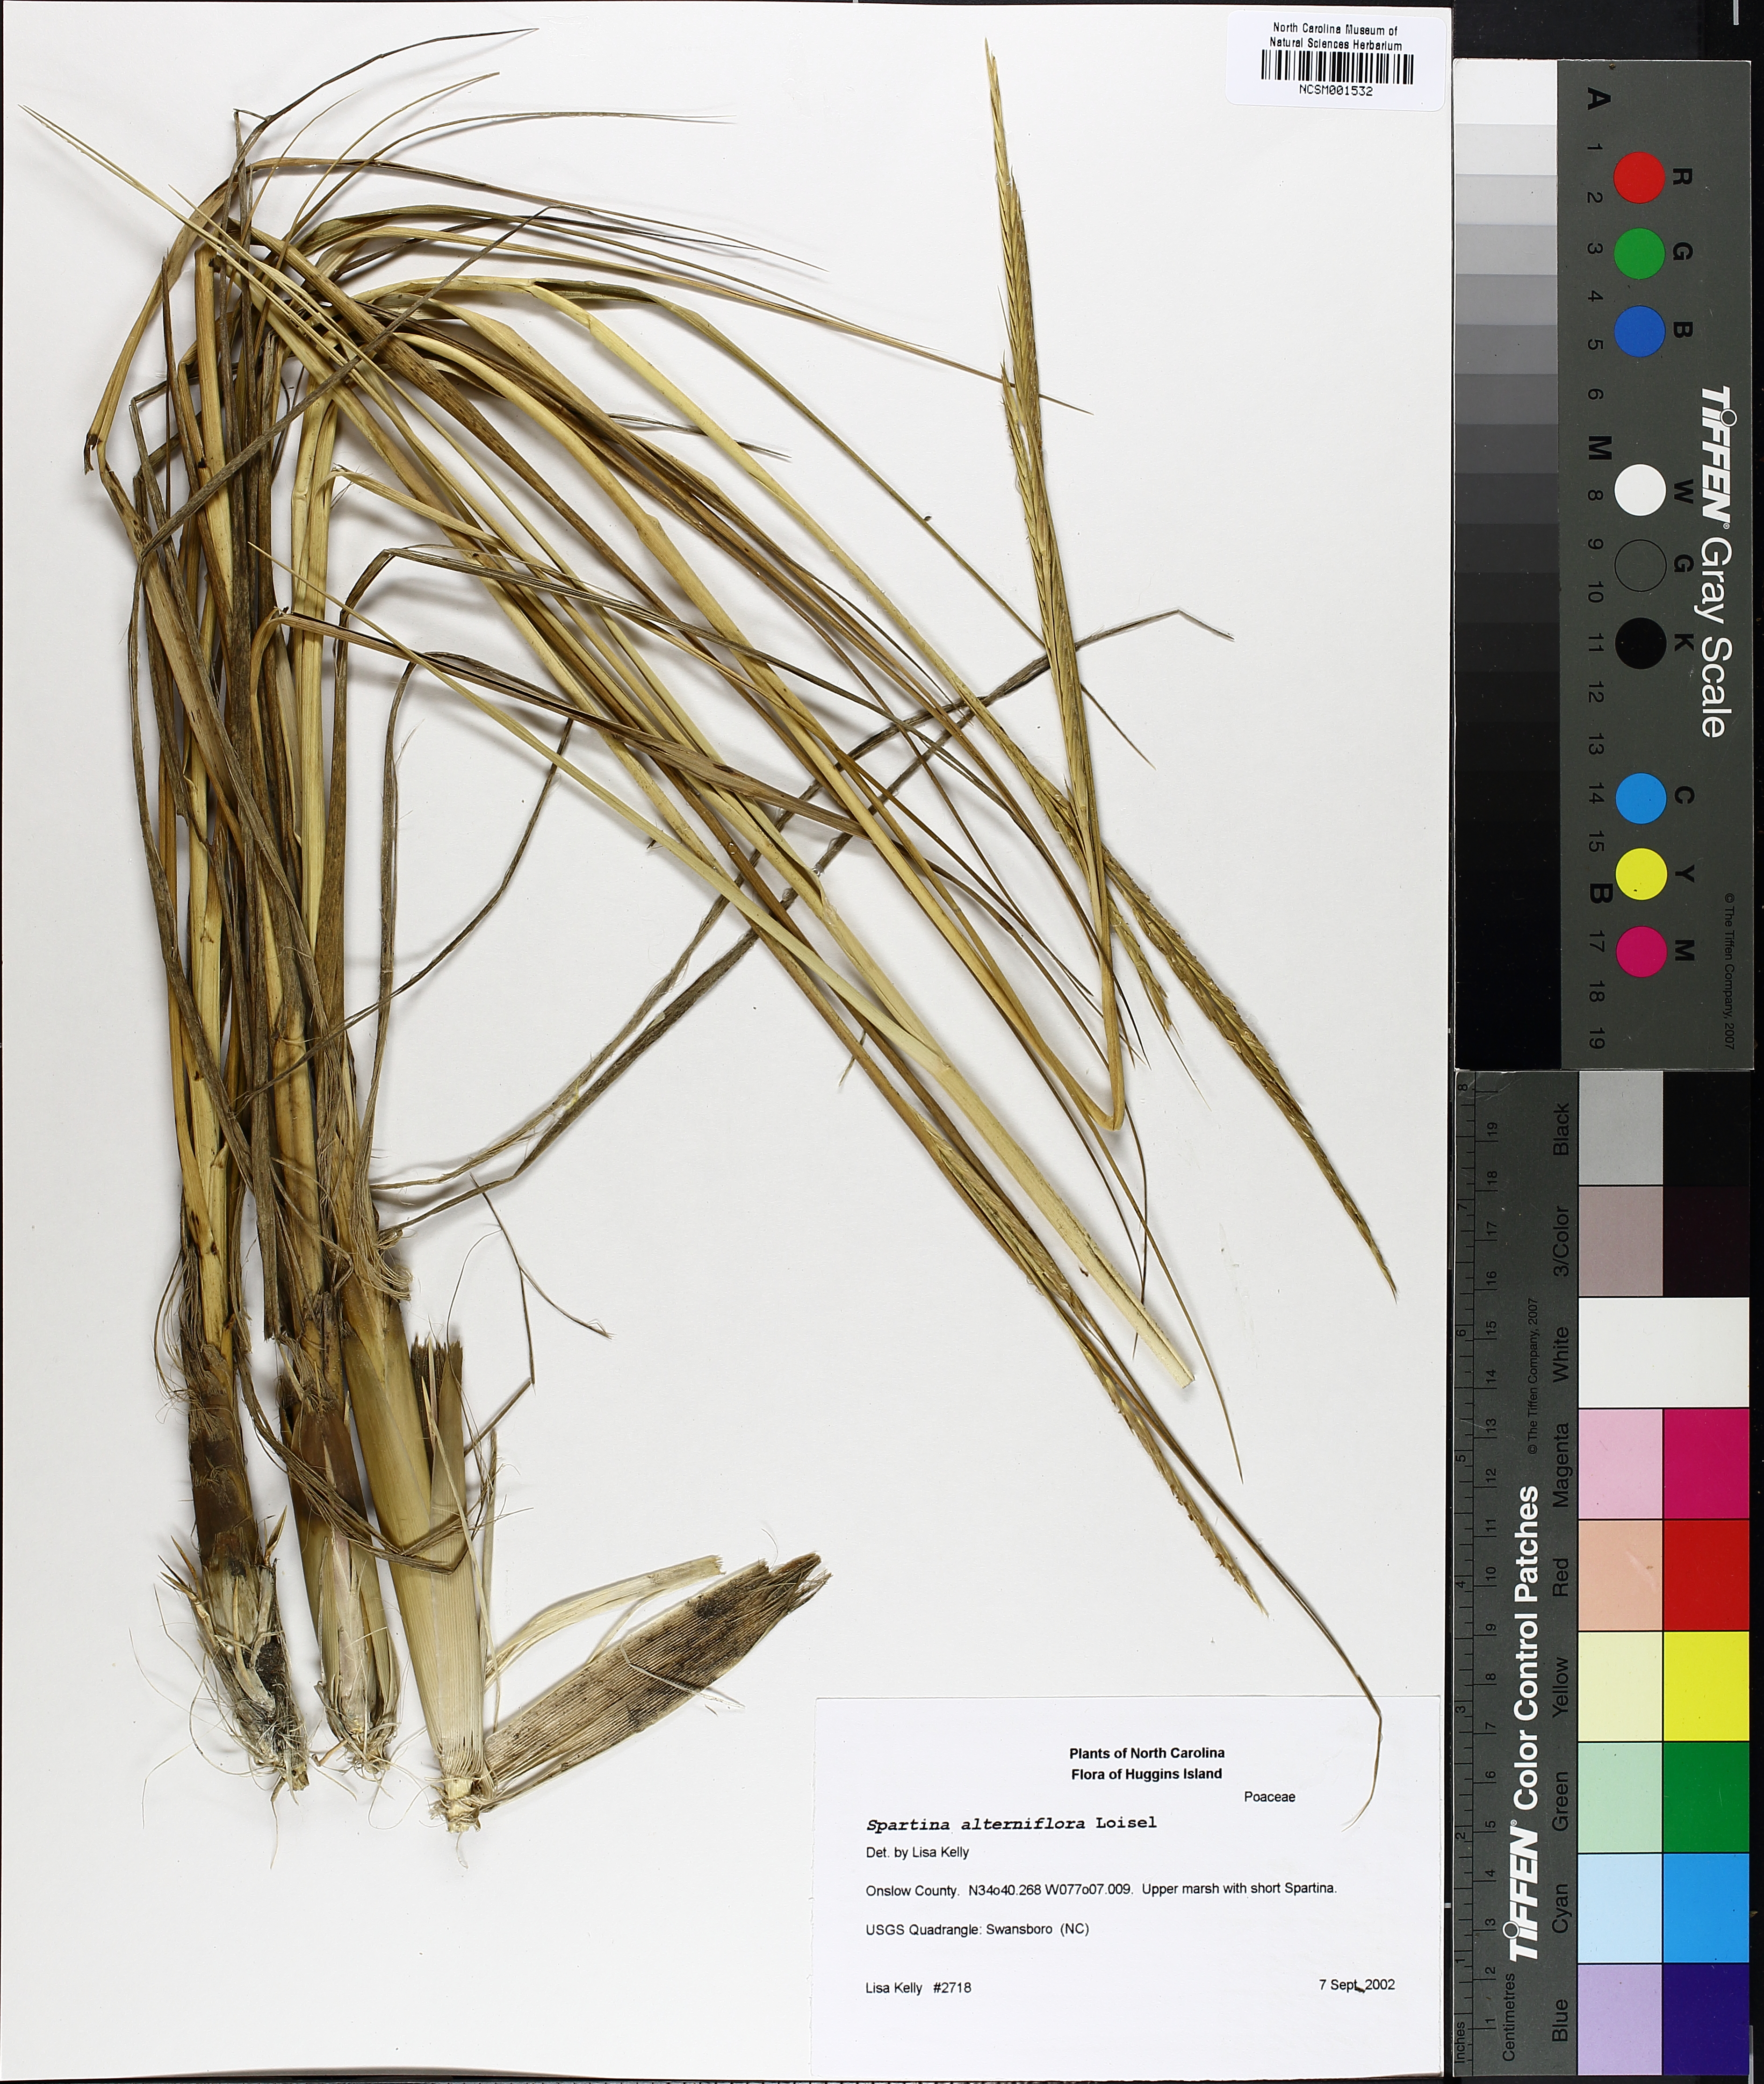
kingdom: Plantae
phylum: Tracheophyta
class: Liliopsida
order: Poales
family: Poaceae
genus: Sporobolus
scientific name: Sporobolus alterniflorus
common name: Atlantic cordgrass
